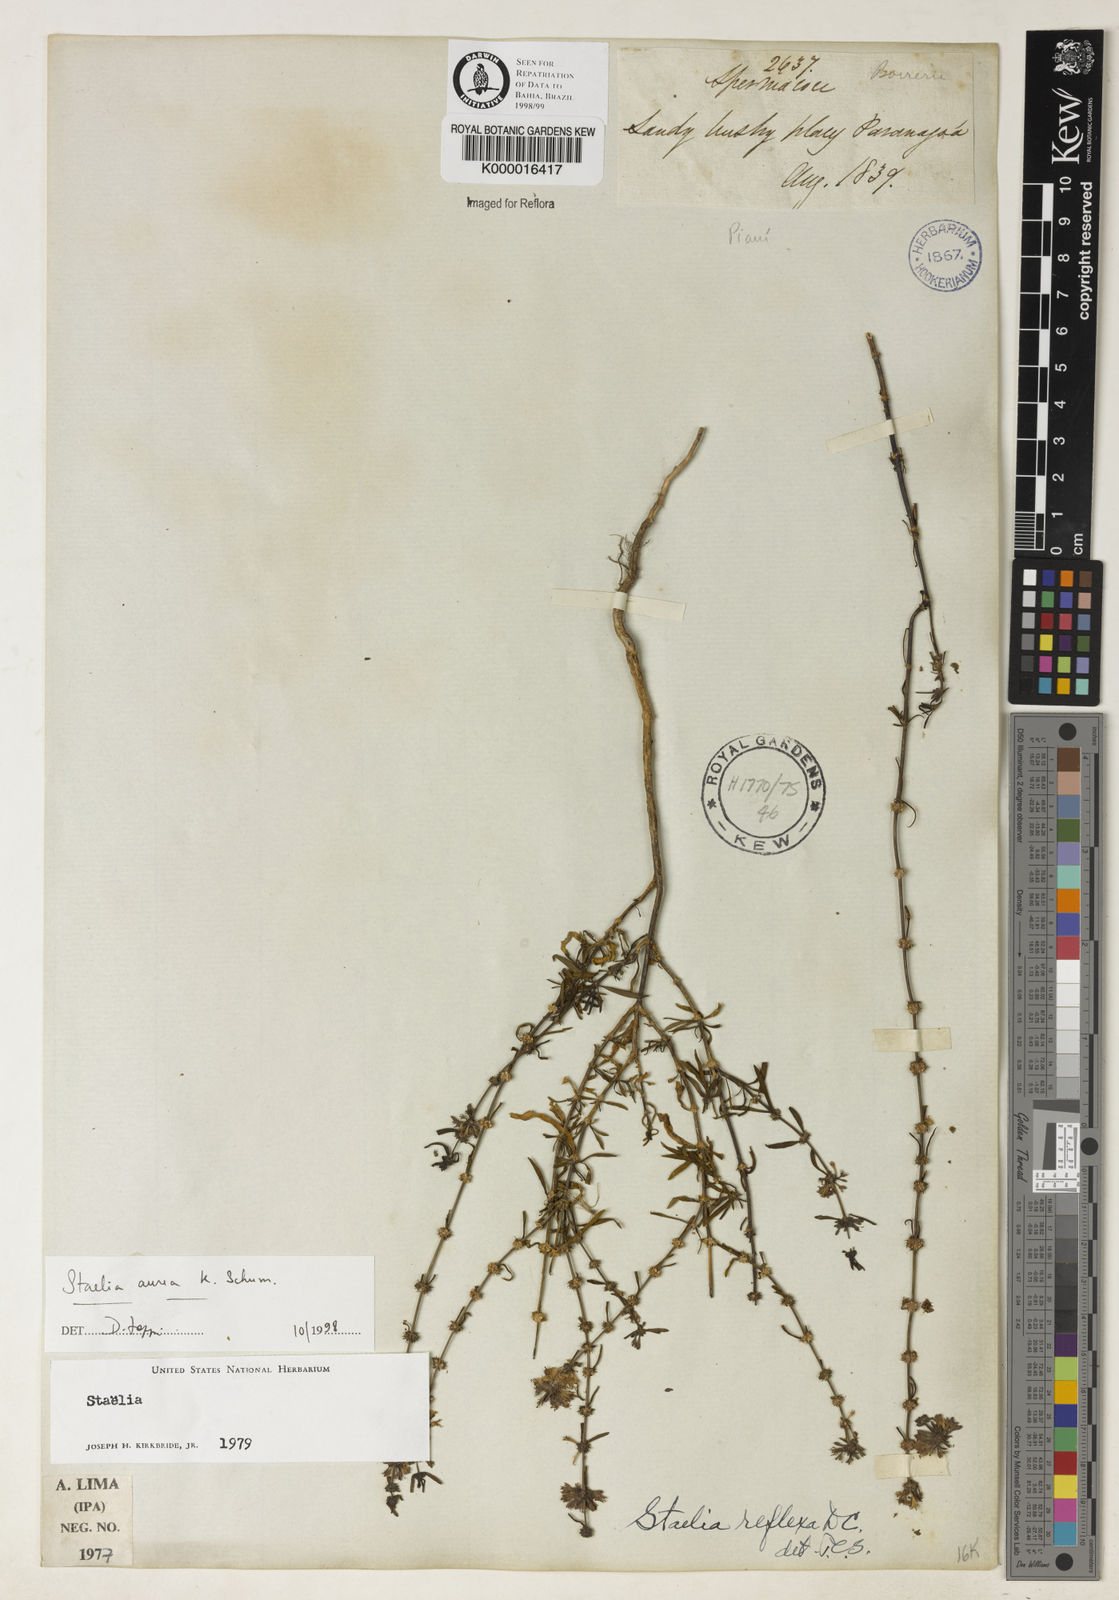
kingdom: Plantae
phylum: Tracheophyta
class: Magnoliopsida
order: Gentianales
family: Rubiaceae
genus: Staelia
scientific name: Staelia aurea
